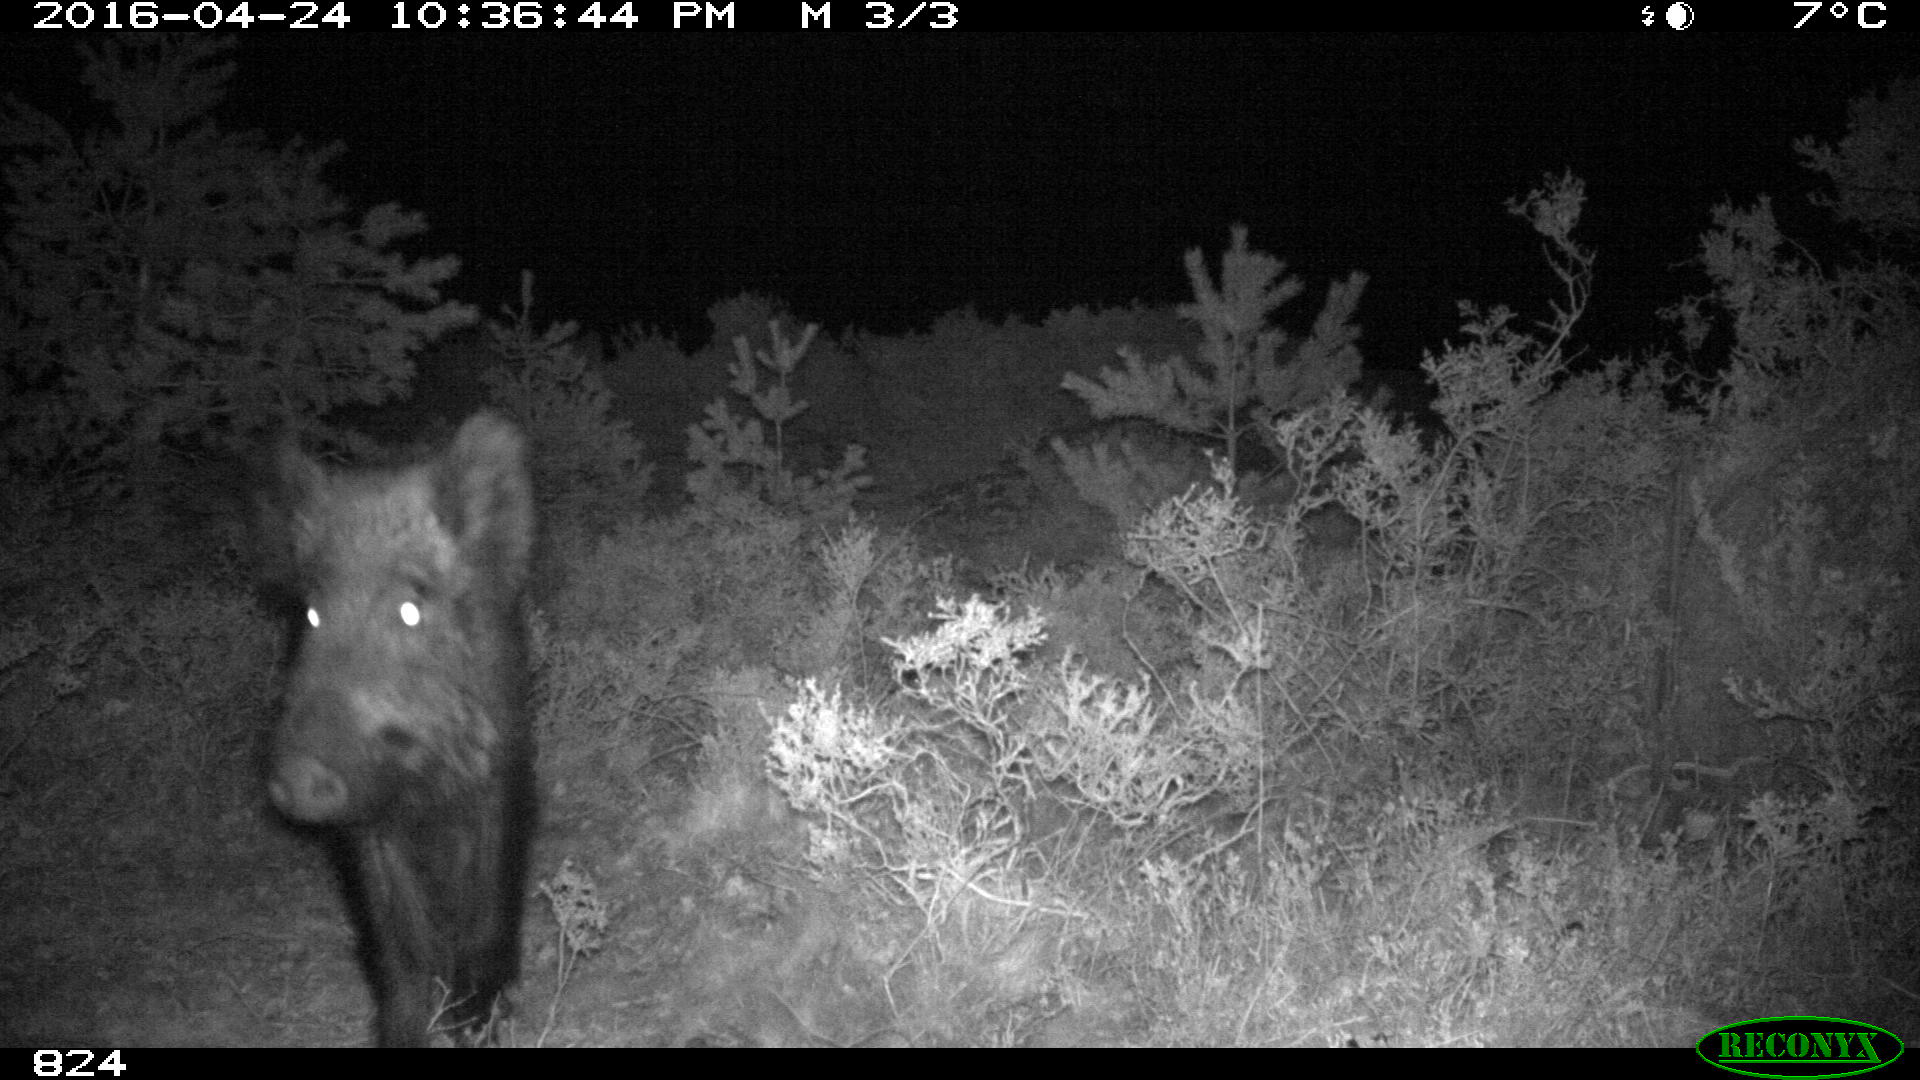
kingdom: Animalia
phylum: Chordata
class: Mammalia
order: Artiodactyla
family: Suidae
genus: Sus
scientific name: Sus scrofa
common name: Wild boar
